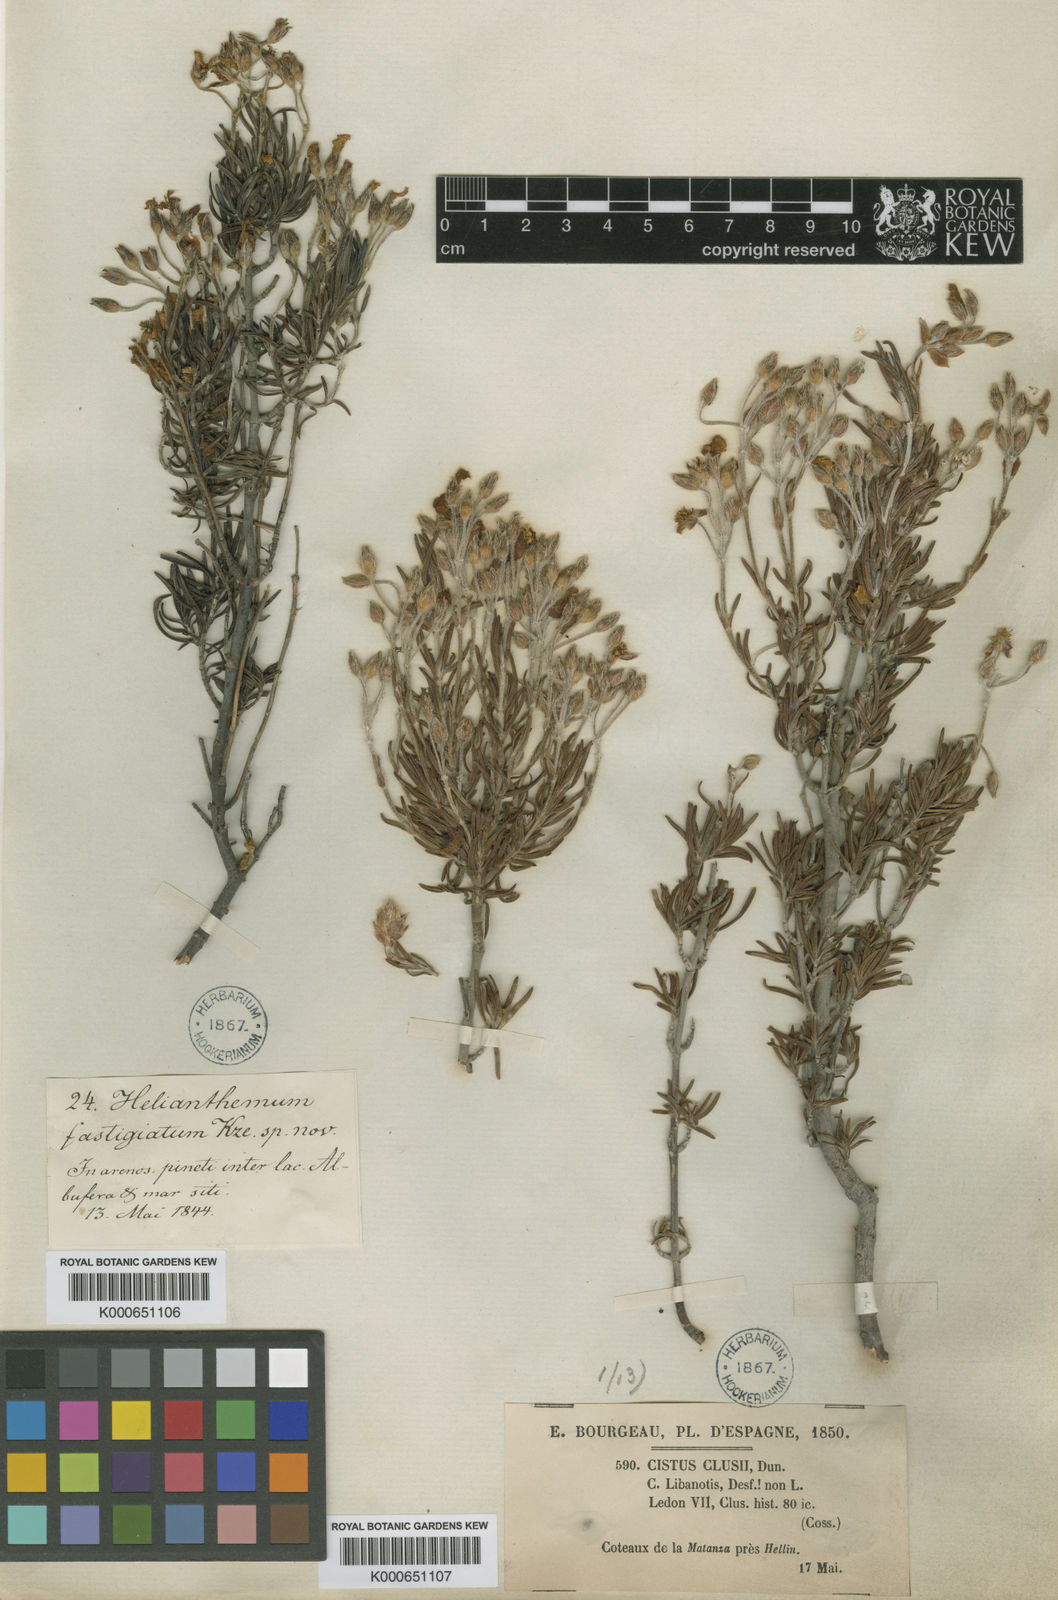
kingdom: Plantae
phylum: Tracheophyta
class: Magnoliopsida
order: Malvales
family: Cistaceae
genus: Cistus
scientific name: Cistus clusii
